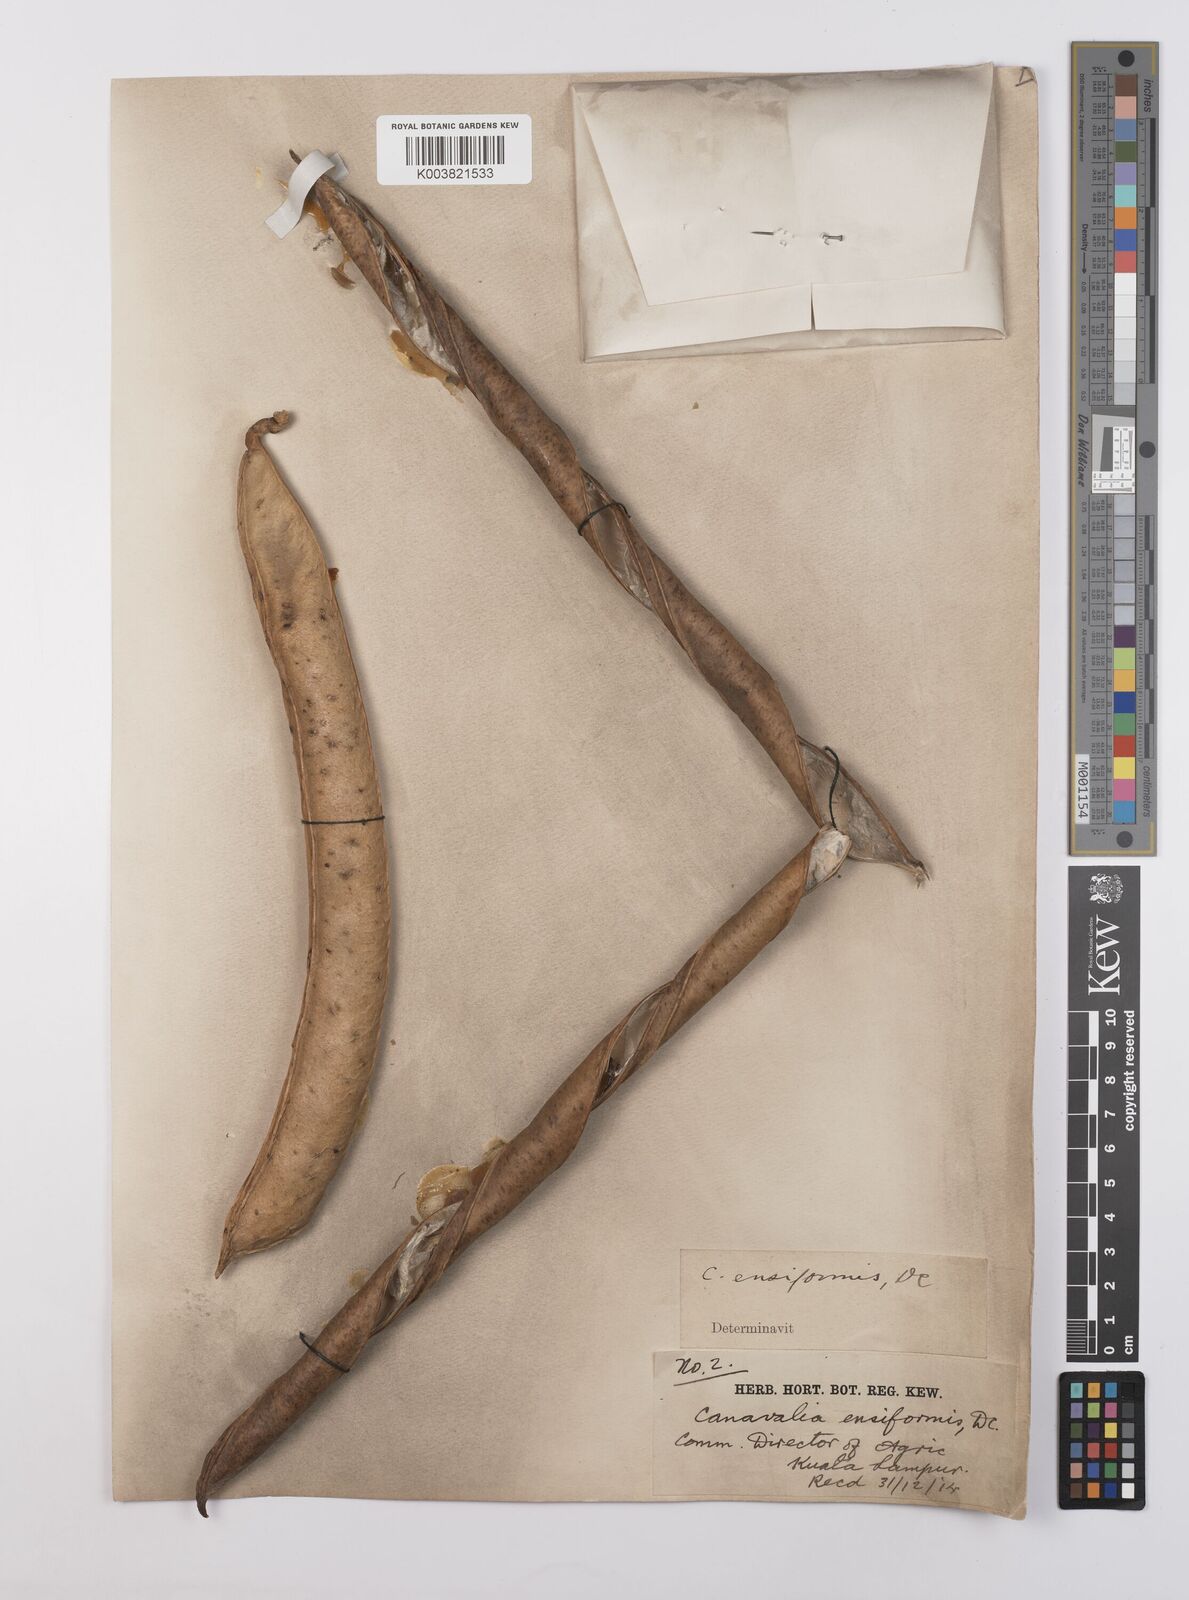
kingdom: Plantae
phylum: Tracheophyta
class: Magnoliopsida
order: Fabales
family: Fabaceae
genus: Canavalia
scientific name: Canavalia ensiformis
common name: Jack bean
